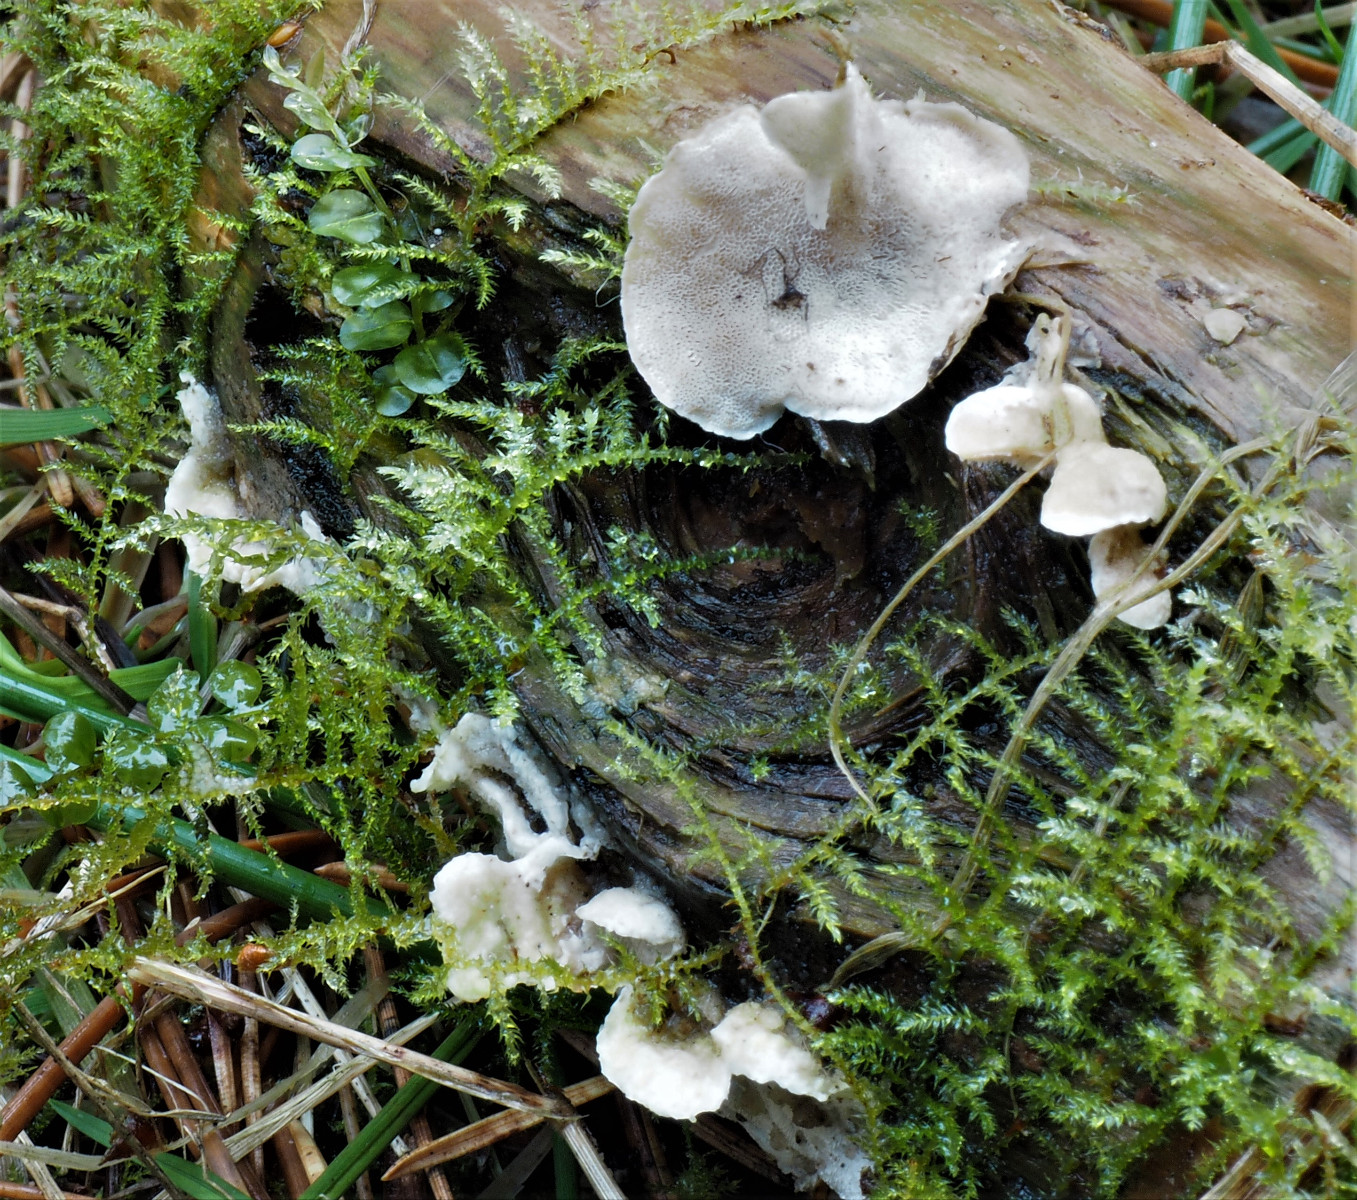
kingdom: Fungi
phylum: Basidiomycota
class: Agaricomycetes
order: Polyporales
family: Incrustoporiaceae
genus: Skeletocutis
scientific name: Skeletocutis carneogrisea
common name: rødgrå krystalporesvamp
